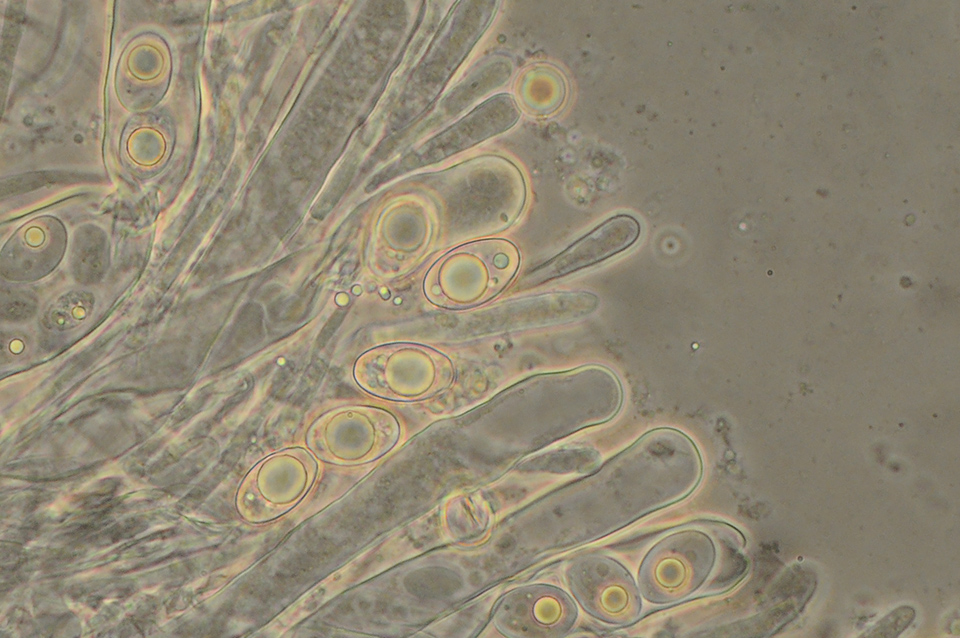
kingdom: Fungi
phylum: Ascomycota
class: Pezizomycetes
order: Pezizales
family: Pyronemataceae
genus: Geopora
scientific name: Geopora tenuis
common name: frit jordbæger
